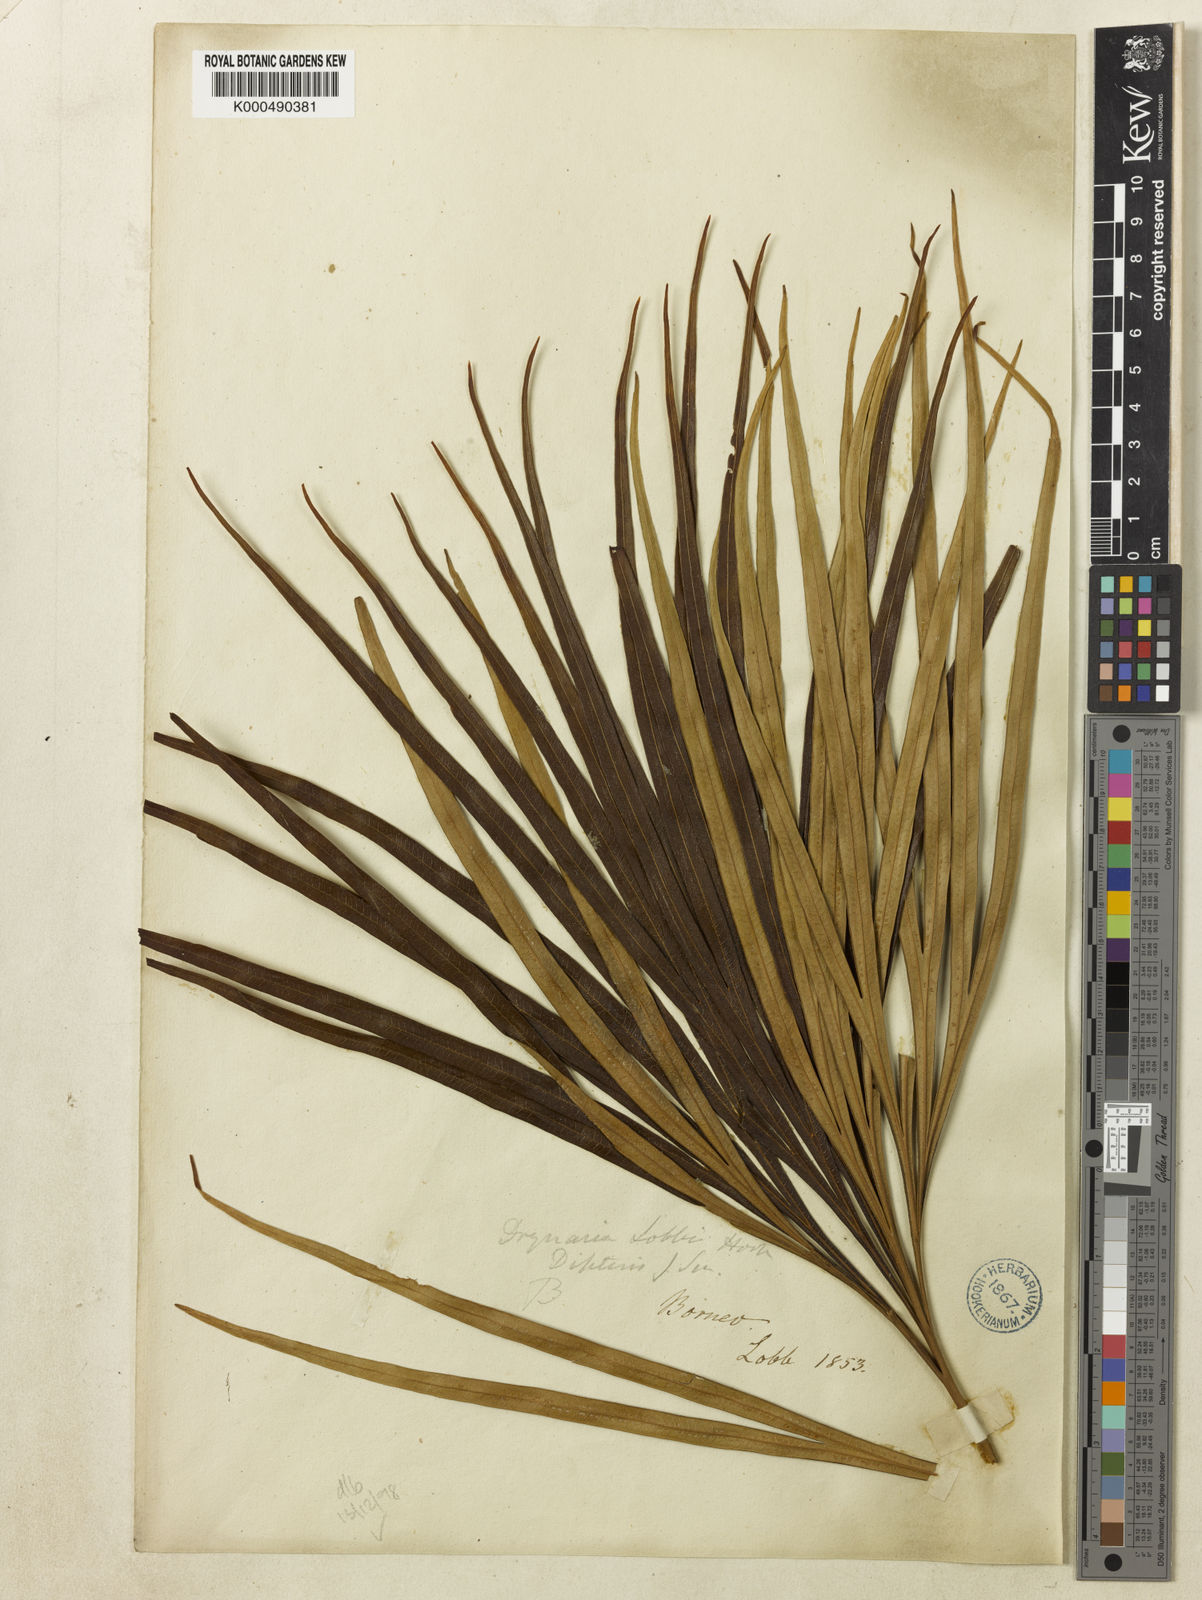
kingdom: Plantae
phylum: Tracheophyta
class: Polypodiopsida
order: Gleicheniales
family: Dipteridaceae
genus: Dipteris
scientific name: Dipteris lobbiana
